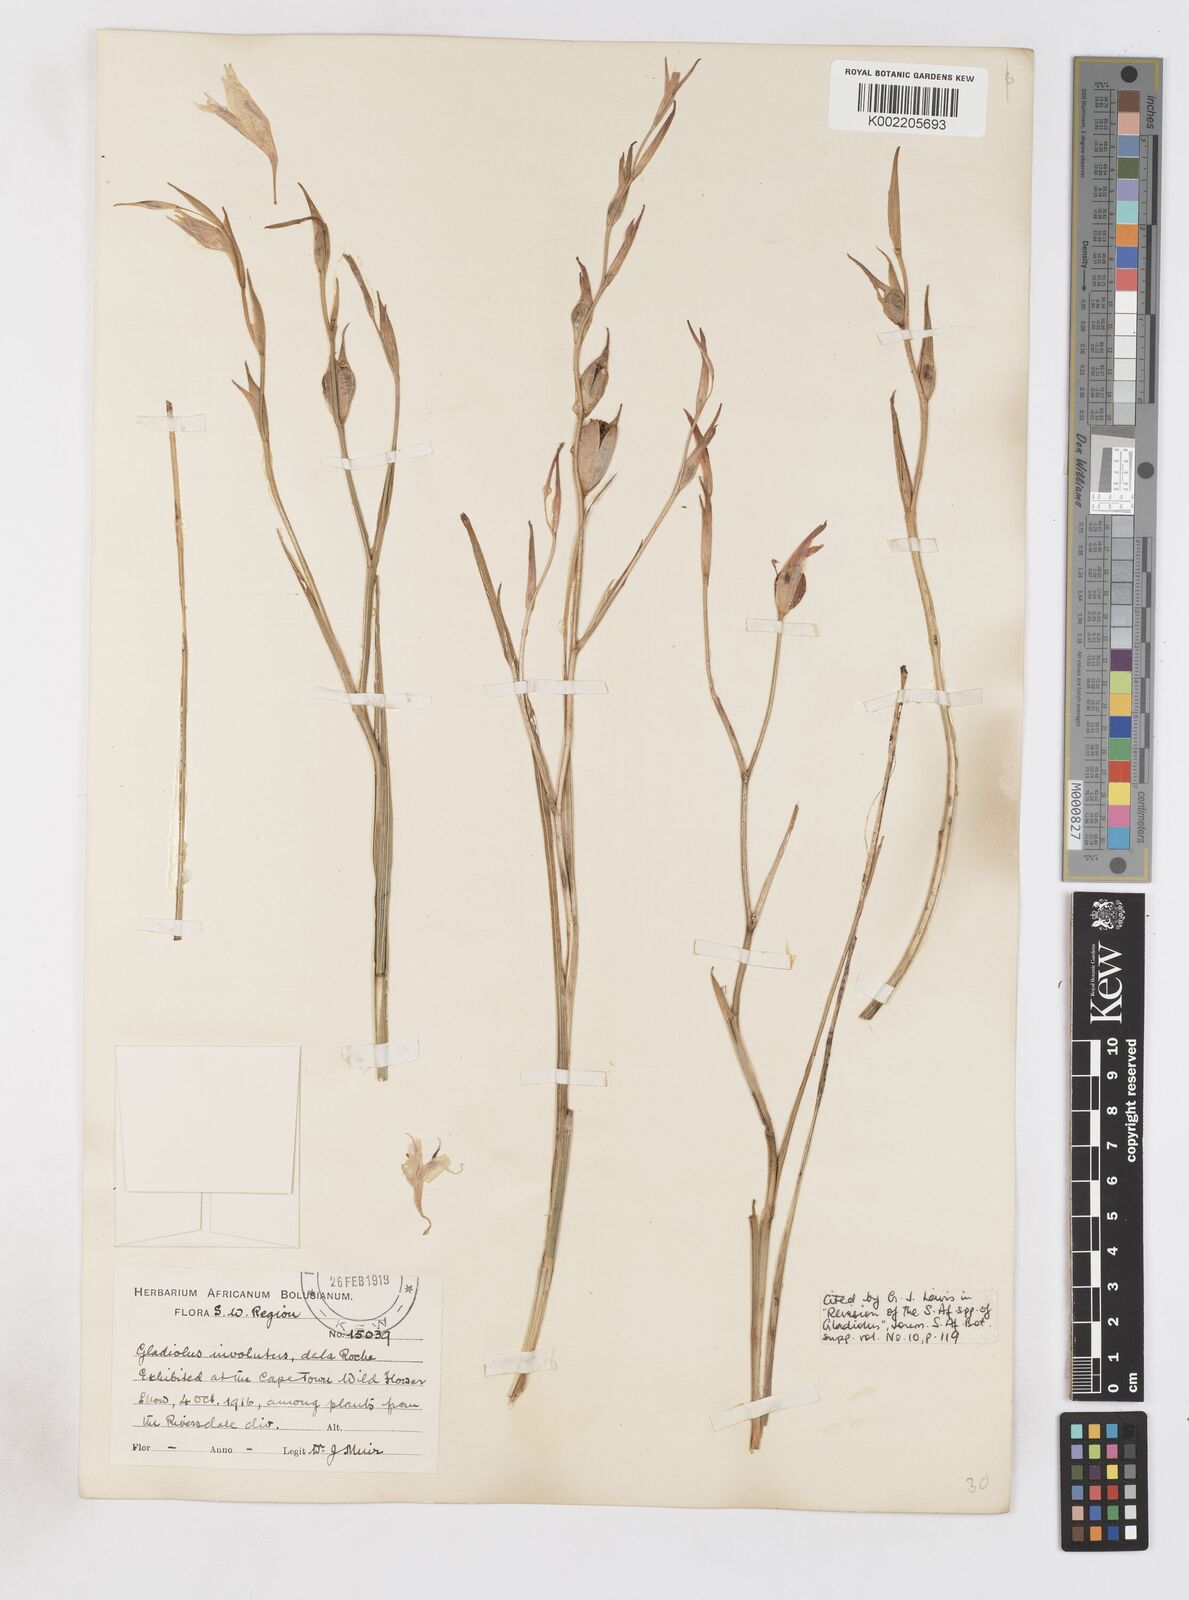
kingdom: Plantae
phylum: Tracheophyta
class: Liliopsida
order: Asparagales
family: Iridaceae
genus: Gladiolus
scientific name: Gladiolus involutus
